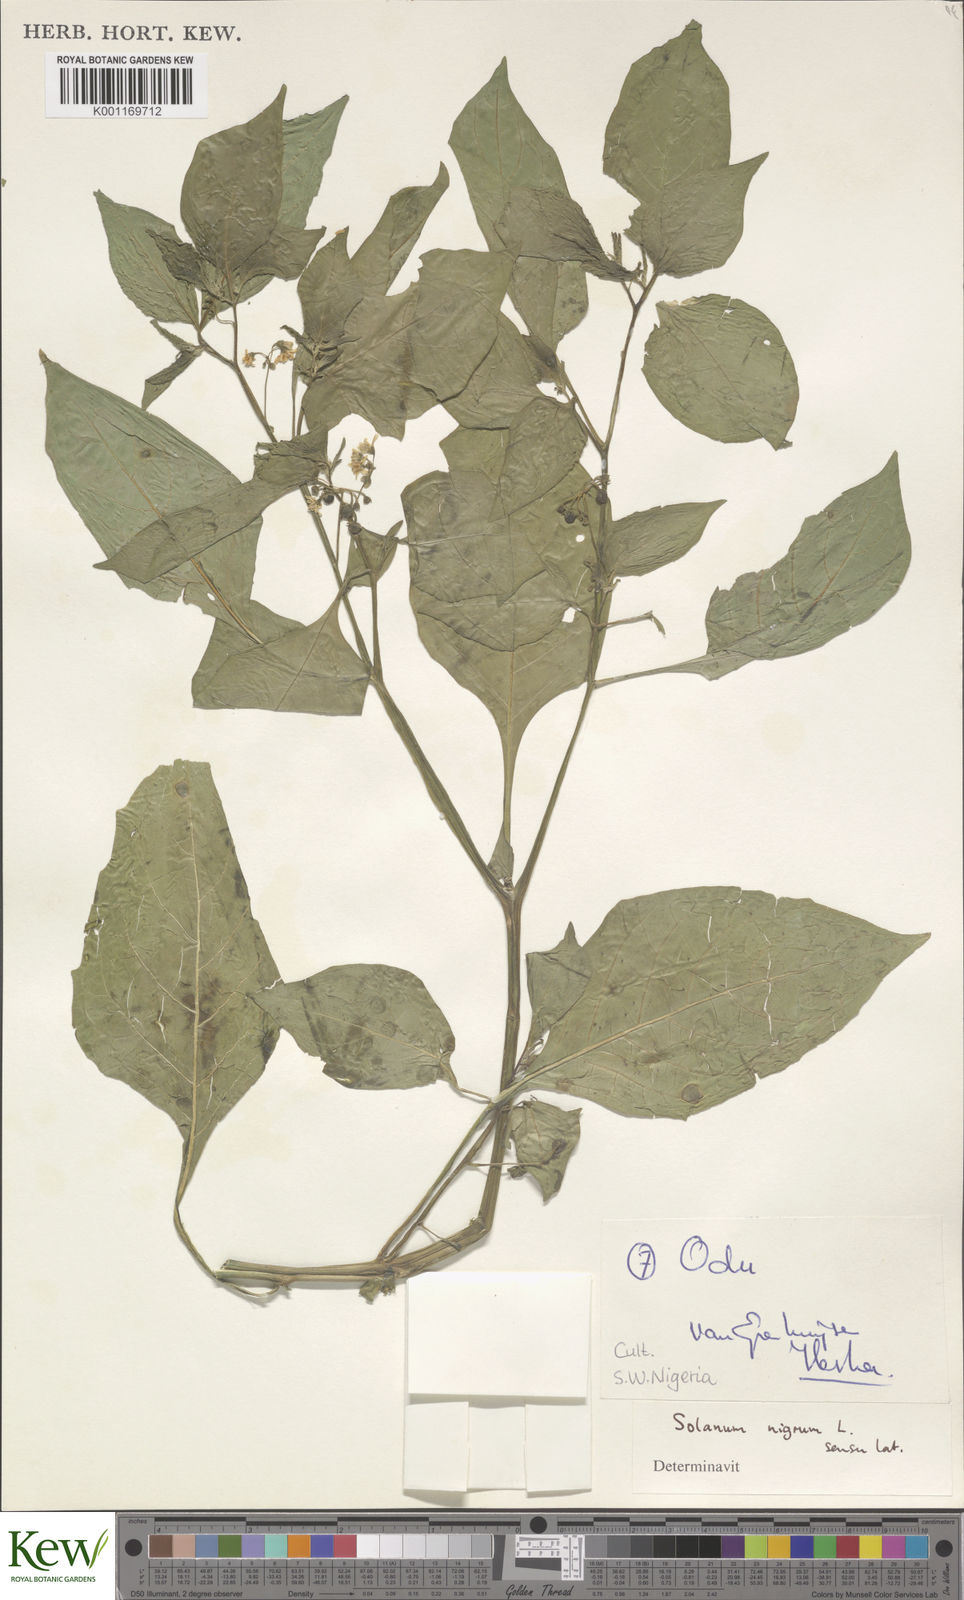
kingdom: Plantae
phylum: Tracheophyta
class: Magnoliopsida
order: Solanales
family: Solanaceae
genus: Solanum
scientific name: Solanum scabrum
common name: Garden-huckleberry
